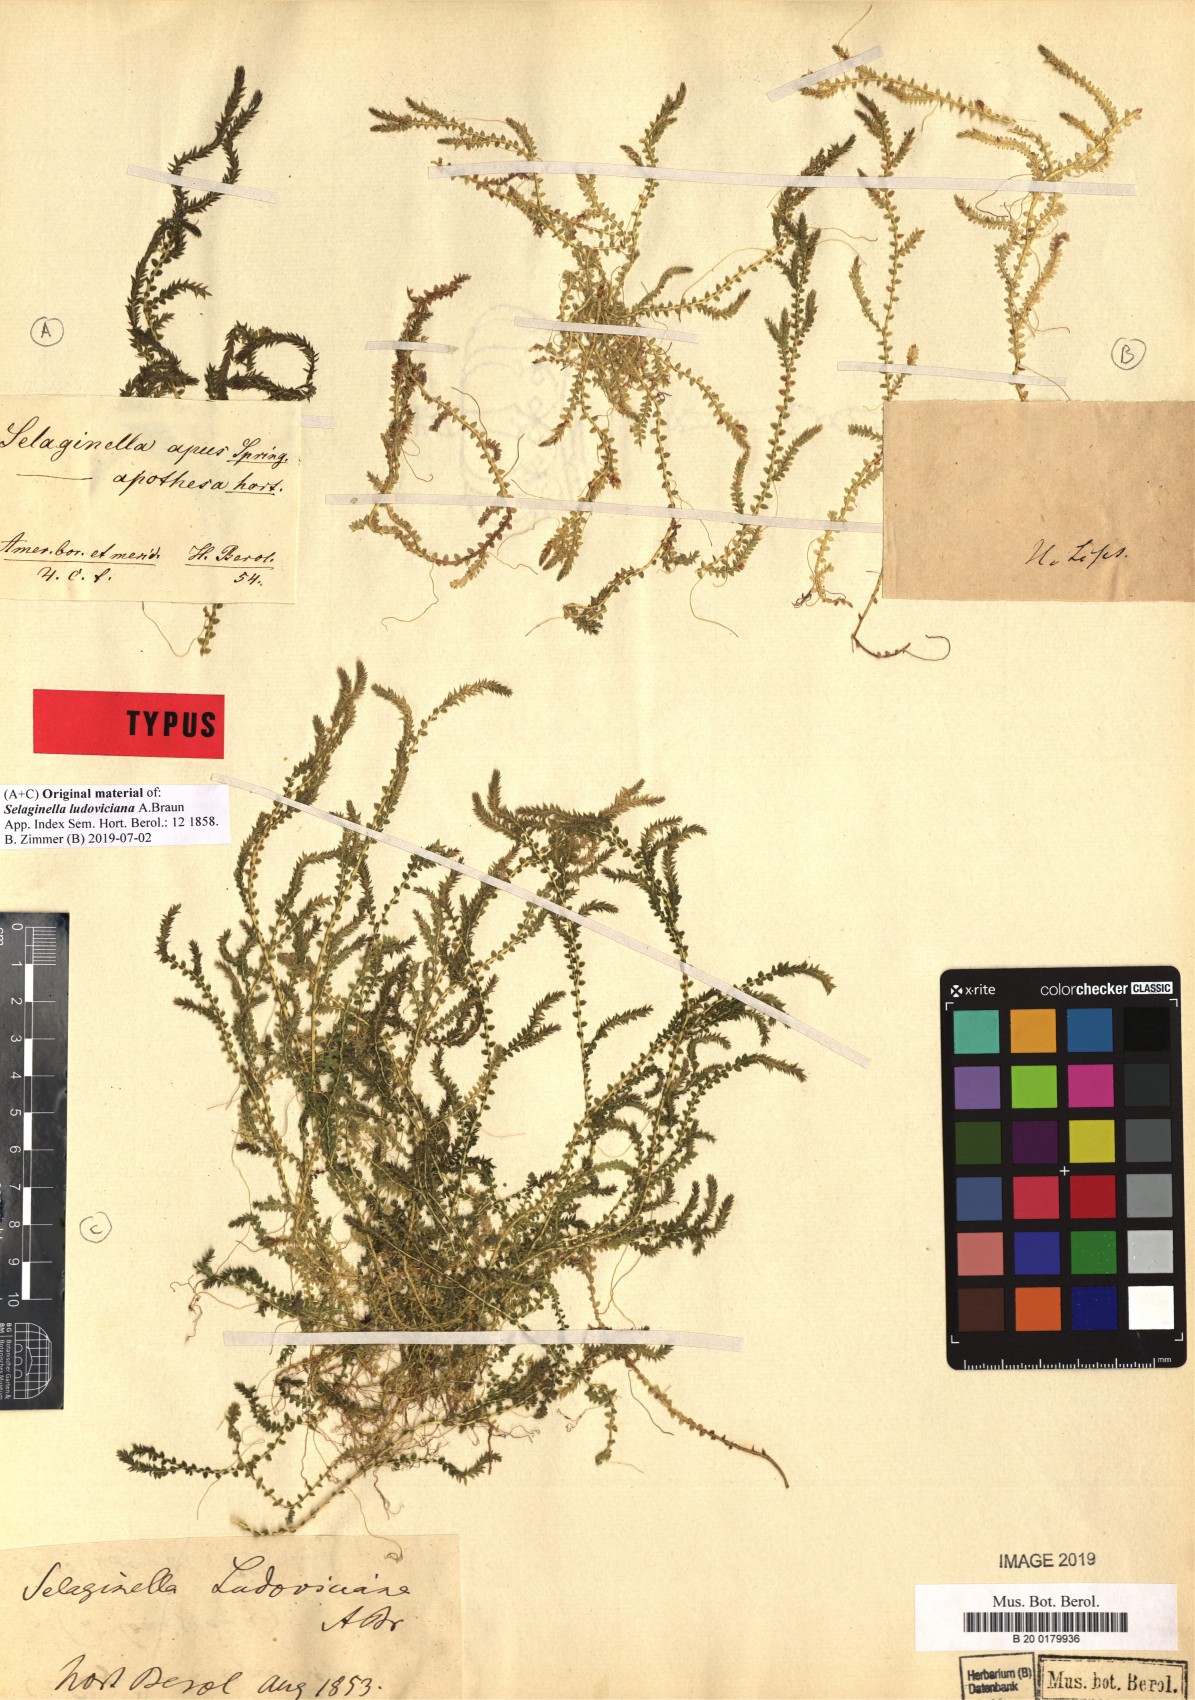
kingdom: Plantae
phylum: Tracheophyta
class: Lycopodiopsida
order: Selaginellales
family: Selaginellaceae
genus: Selaginella
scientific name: Selaginella ludoviciana
